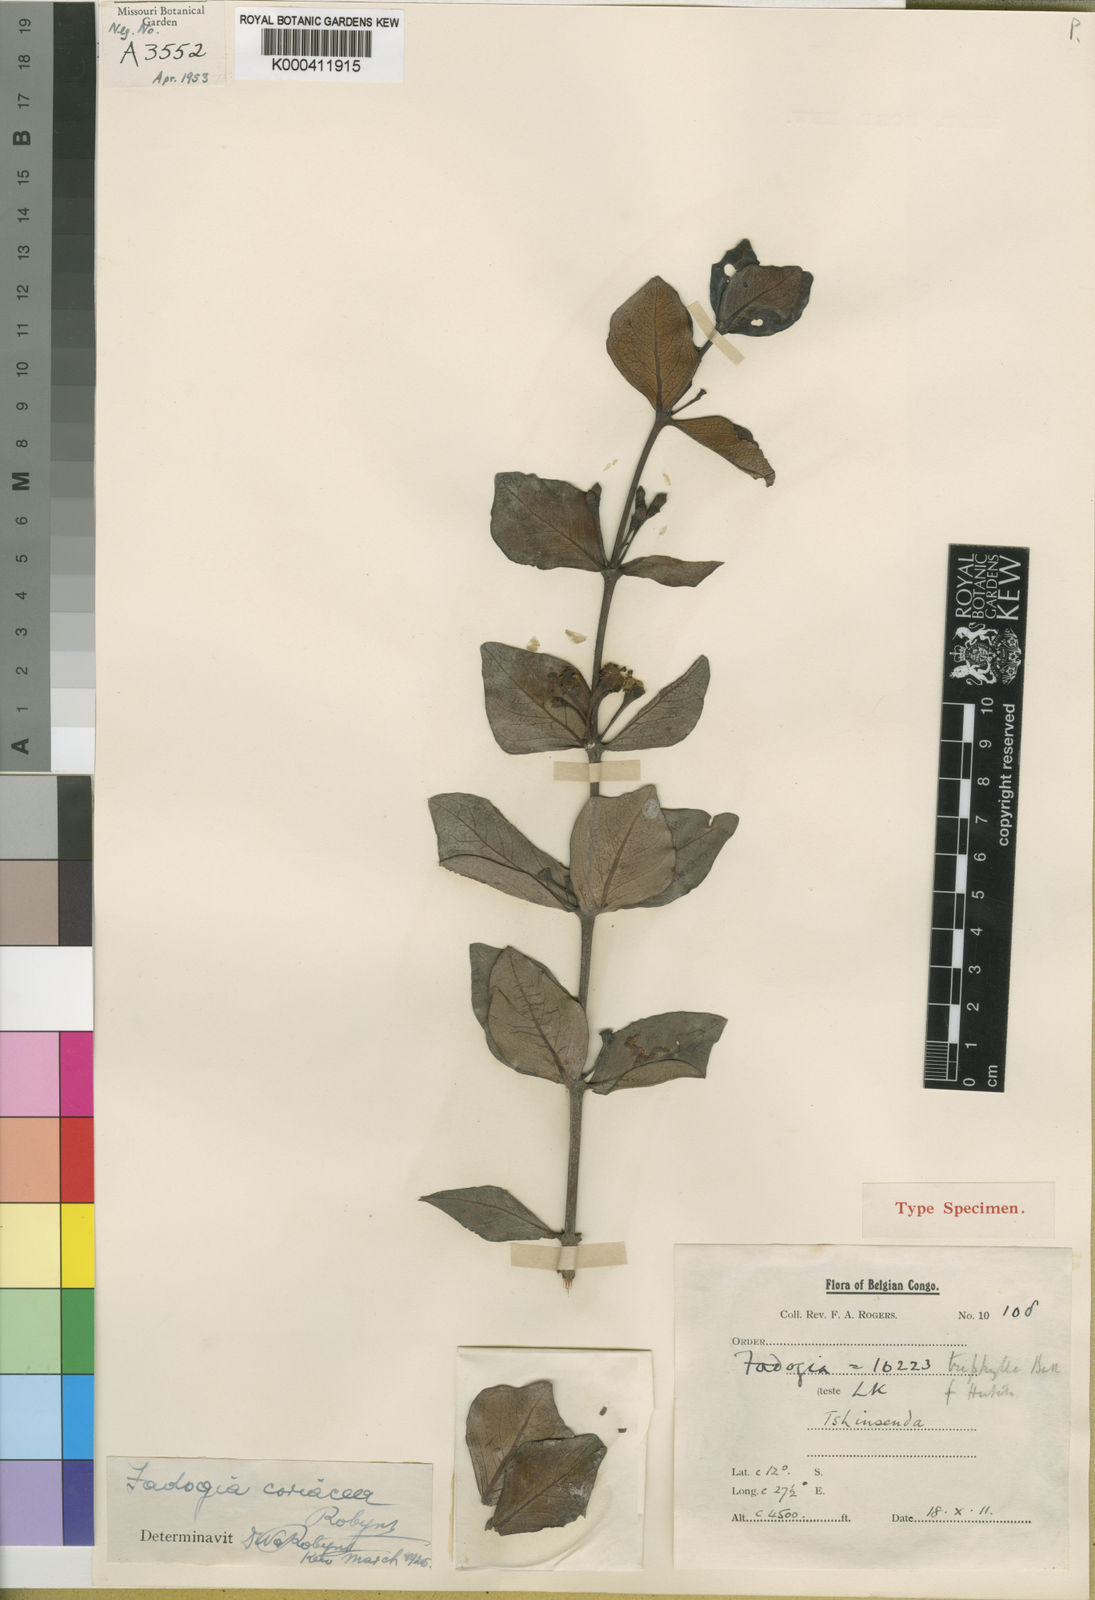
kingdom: Plantae
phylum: Tracheophyta
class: Magnoliopsida
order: Gentianales
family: Rubiaceae
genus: Fadogia
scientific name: Fadogia triphylla
